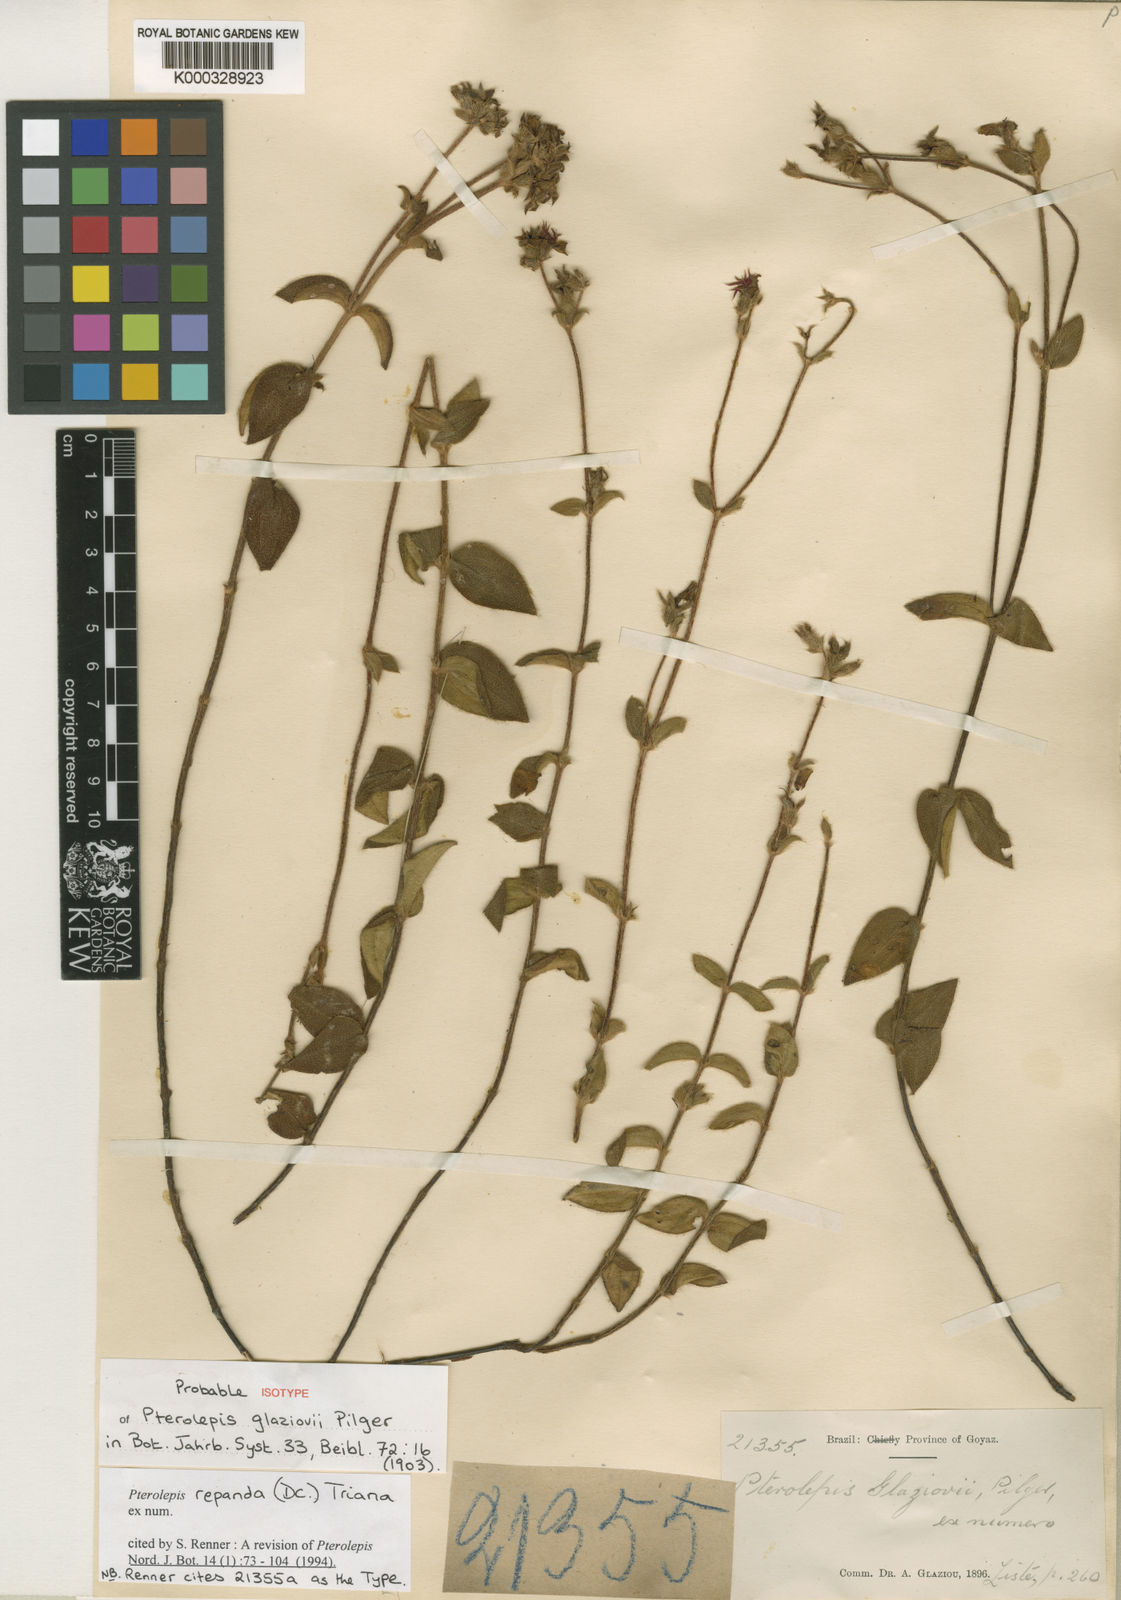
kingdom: Plantae
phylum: Tracheophyta
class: Magnoliopsida
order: Myrtales
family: Melastomataceae
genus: Pterolepis
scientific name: Pterolepis repanda
